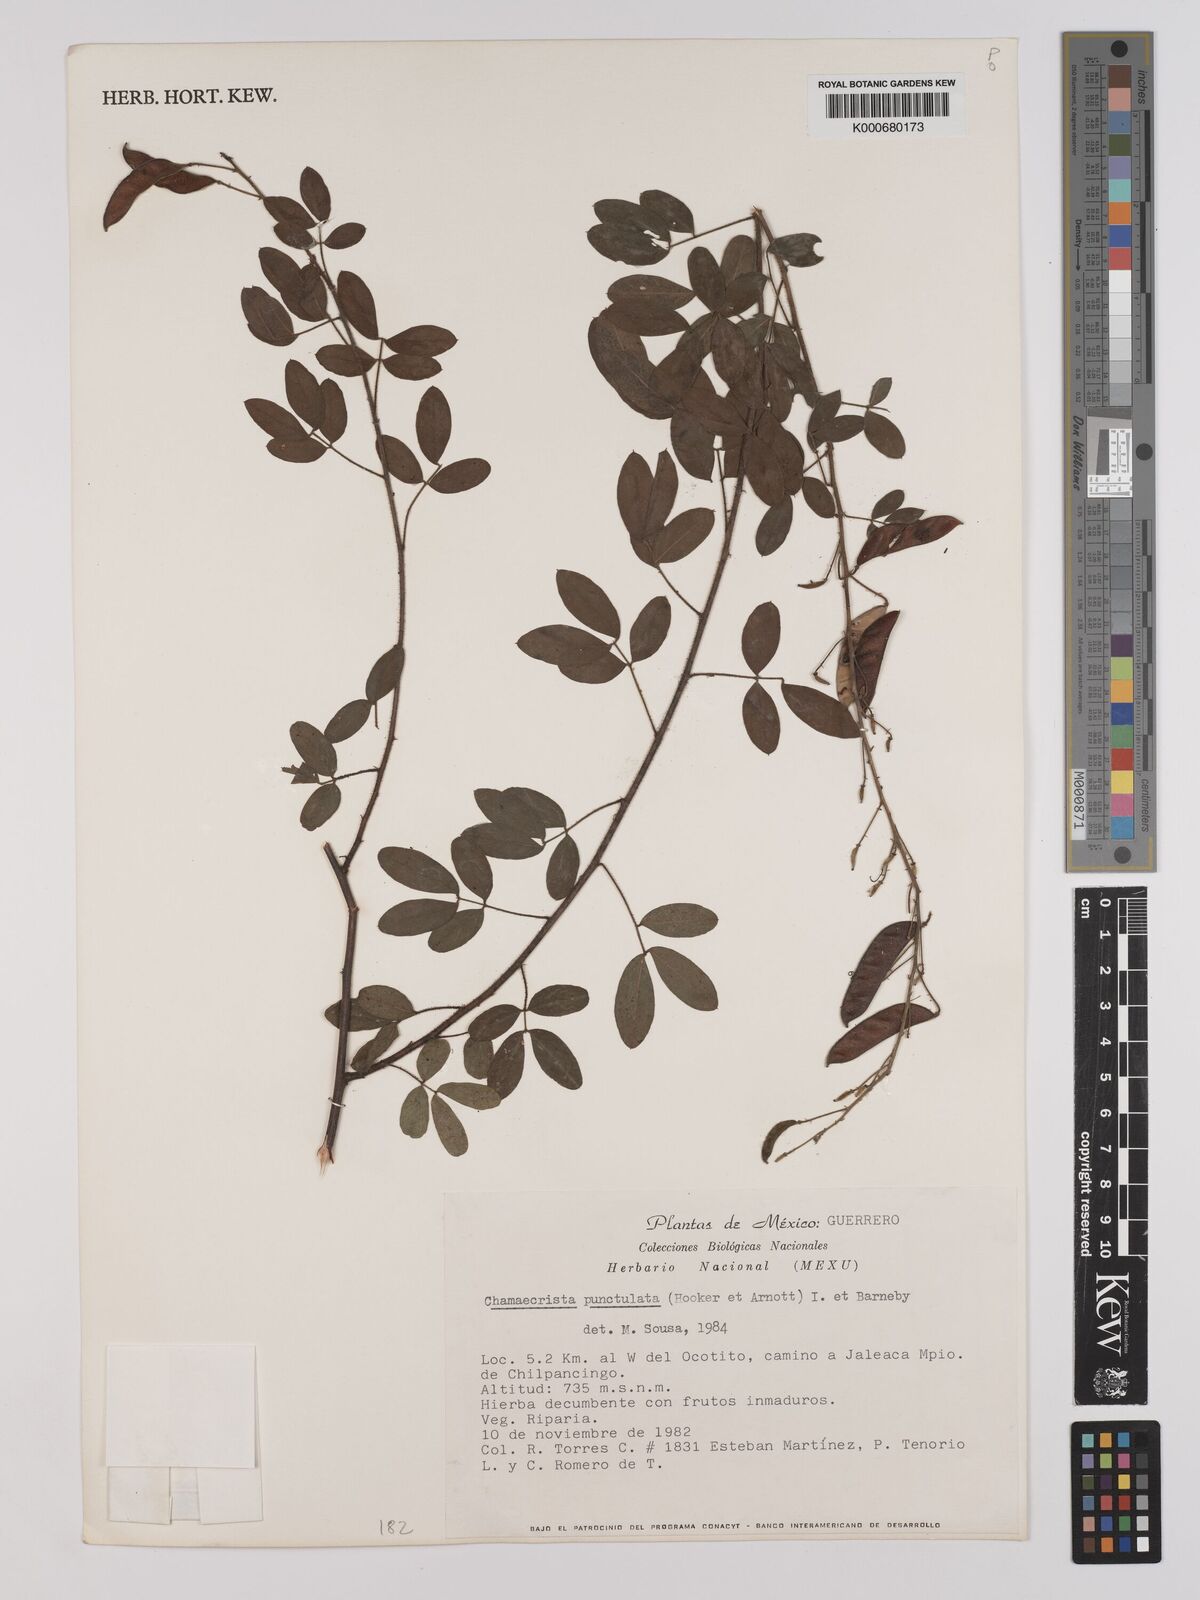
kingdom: Plantae
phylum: Tracheophyta
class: Magnoliopsida
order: Fabales
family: Fabaceae
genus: Chamaecrista
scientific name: Chamaecrista punctulata
